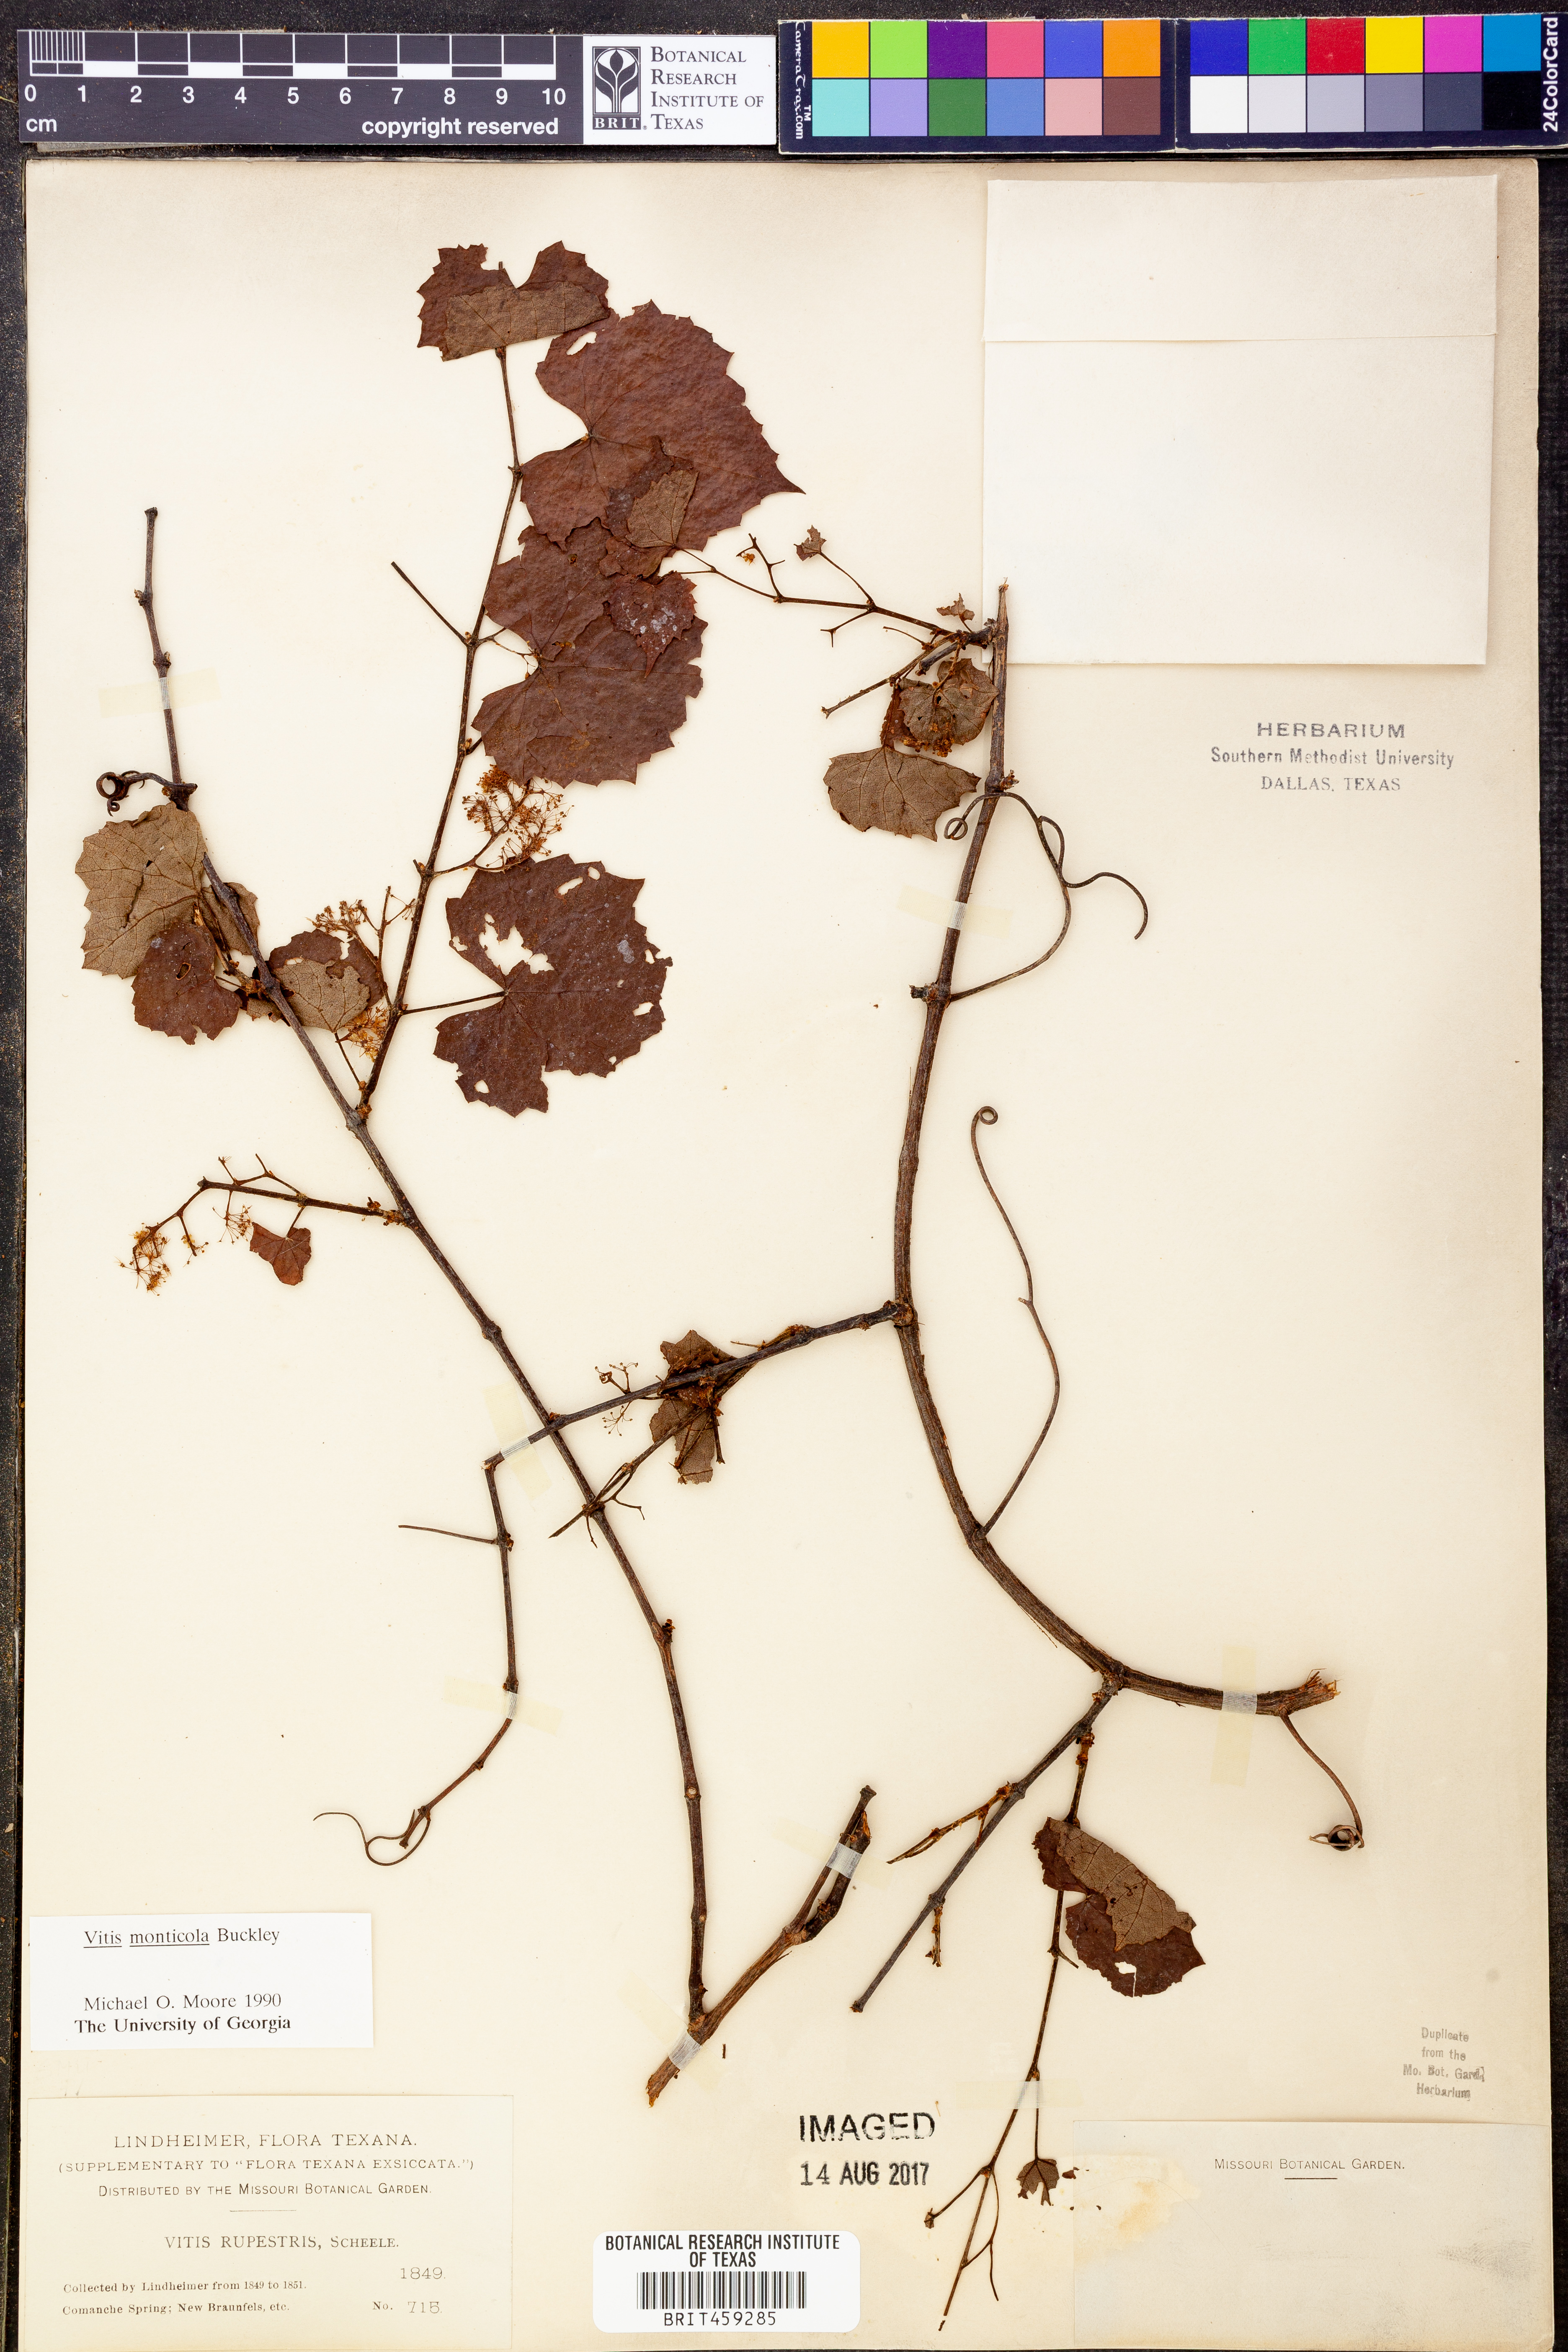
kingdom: Plantae
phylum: Tracheophyta
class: Magnoliopsida
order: Vitales
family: Vitaceae
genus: Vitis
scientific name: Vitis monticola
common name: Mountain grape
